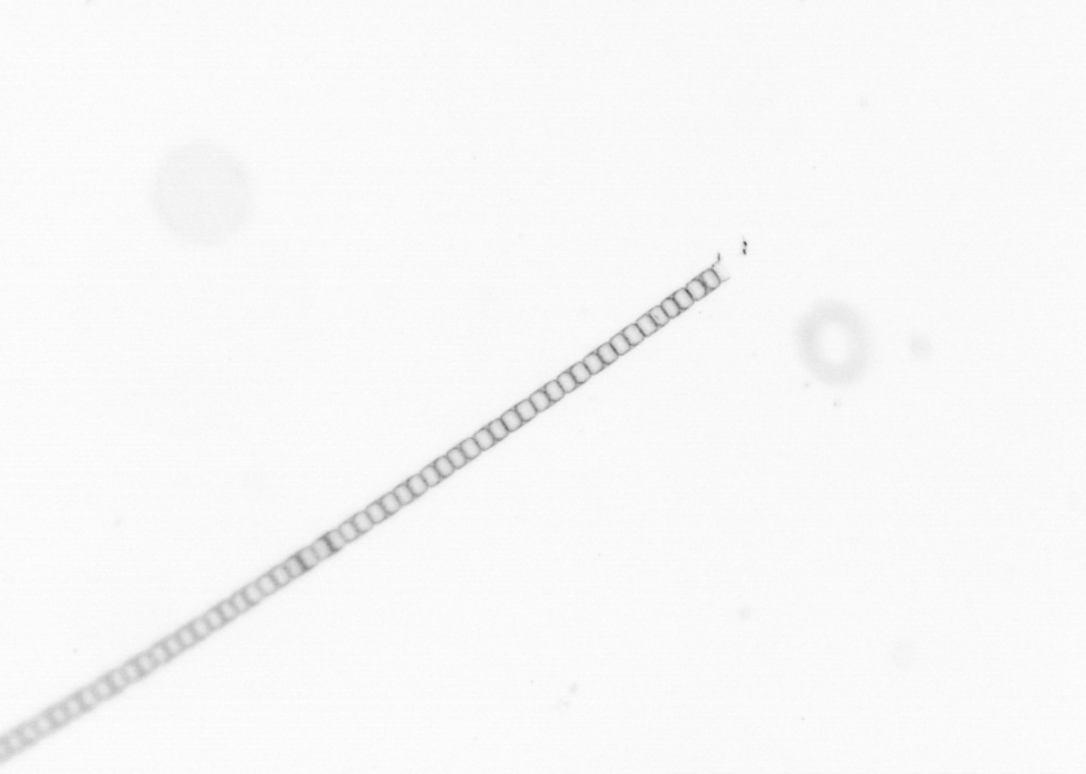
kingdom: Chromista
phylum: Ochrophyta
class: Bacillariophyceae
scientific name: Bacillariophyceae
